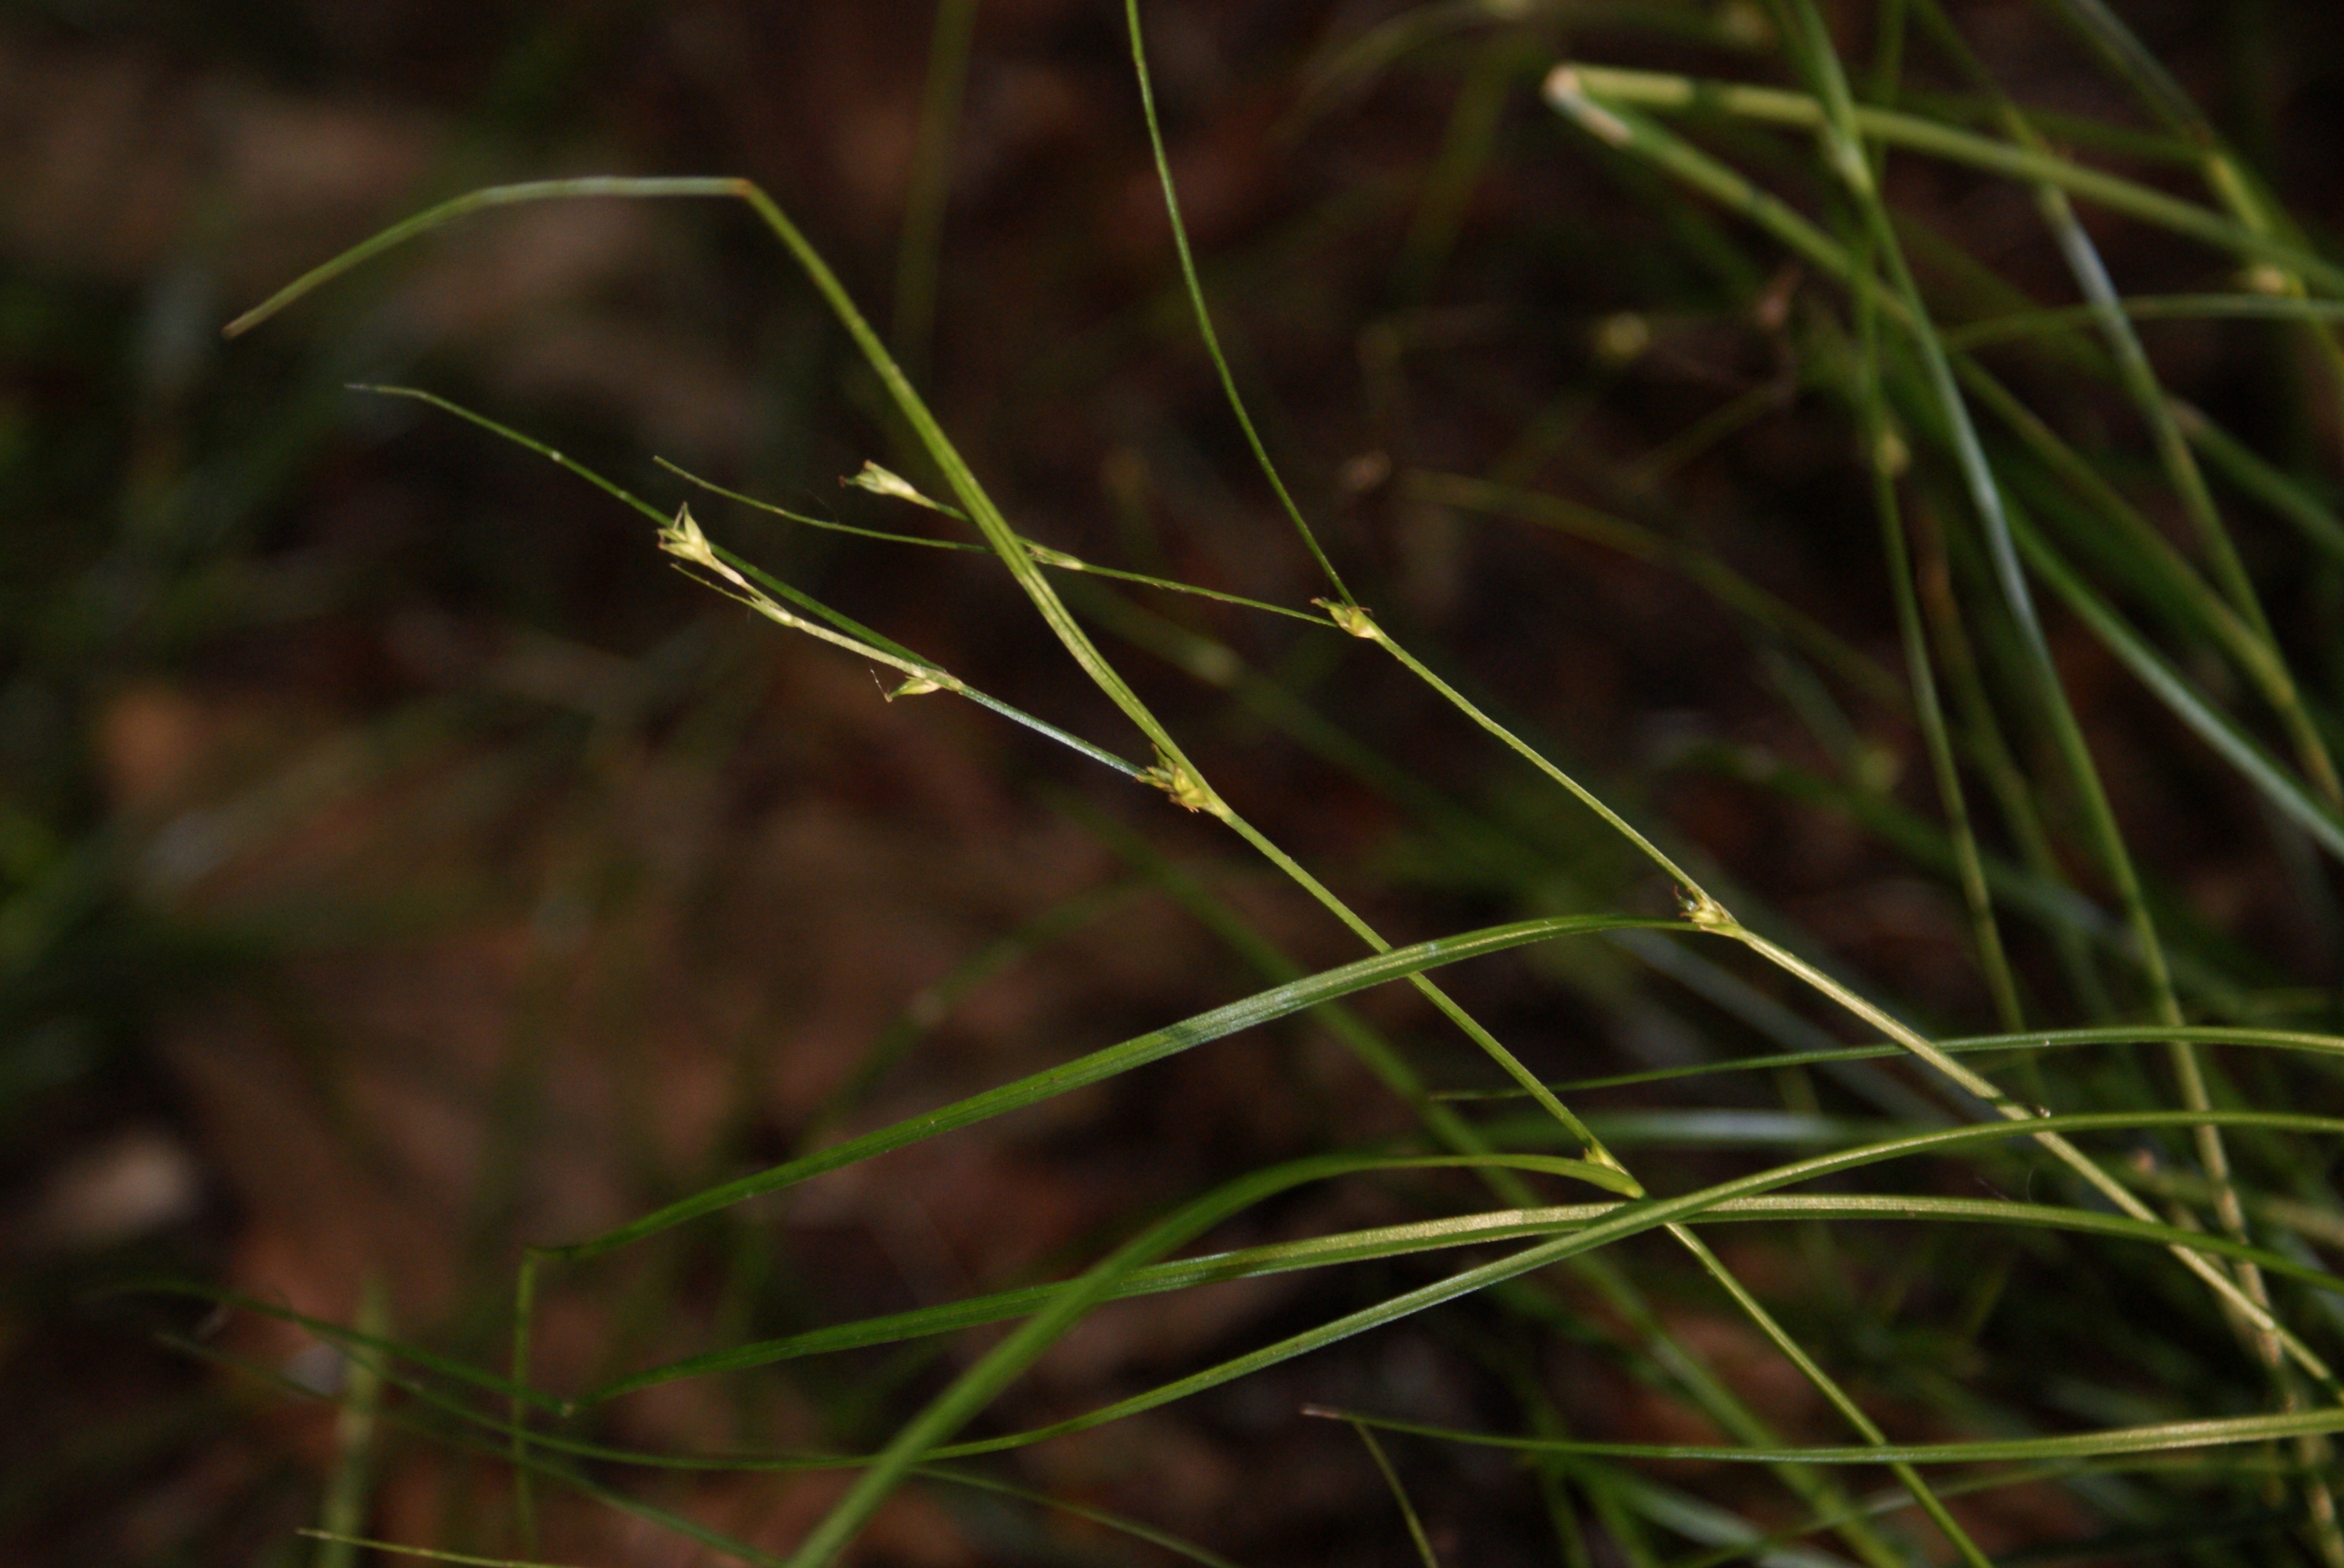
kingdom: Plantae
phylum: Tracheophyta
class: Liliopsida
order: Poales
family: Cyperaceae
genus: Carex
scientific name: Carex remota
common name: Akselblomstret star
